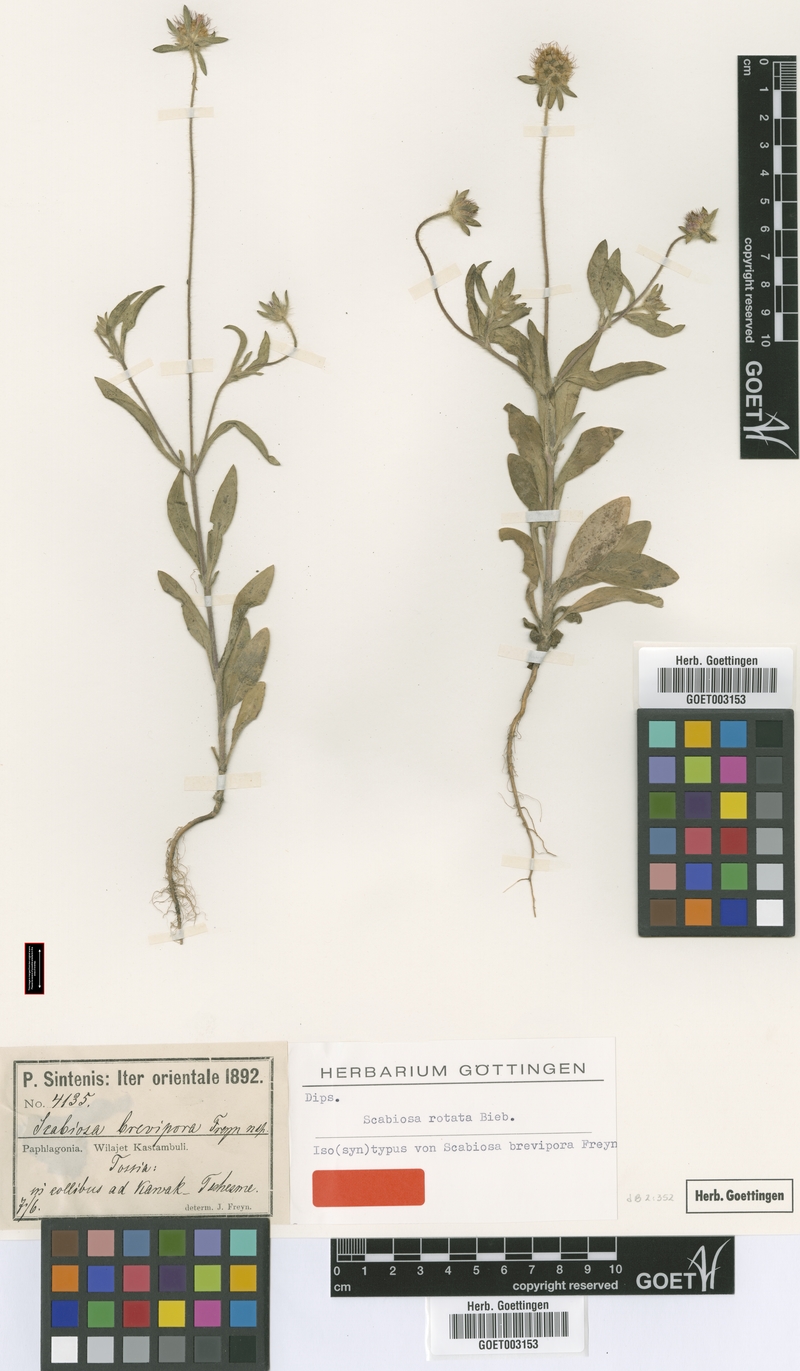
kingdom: Plantae
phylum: Tracheophyta
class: Magnoliopsida
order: Dipsacales
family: Caprifoliaceae
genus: Lomelosia
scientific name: Lomelosia rotata
